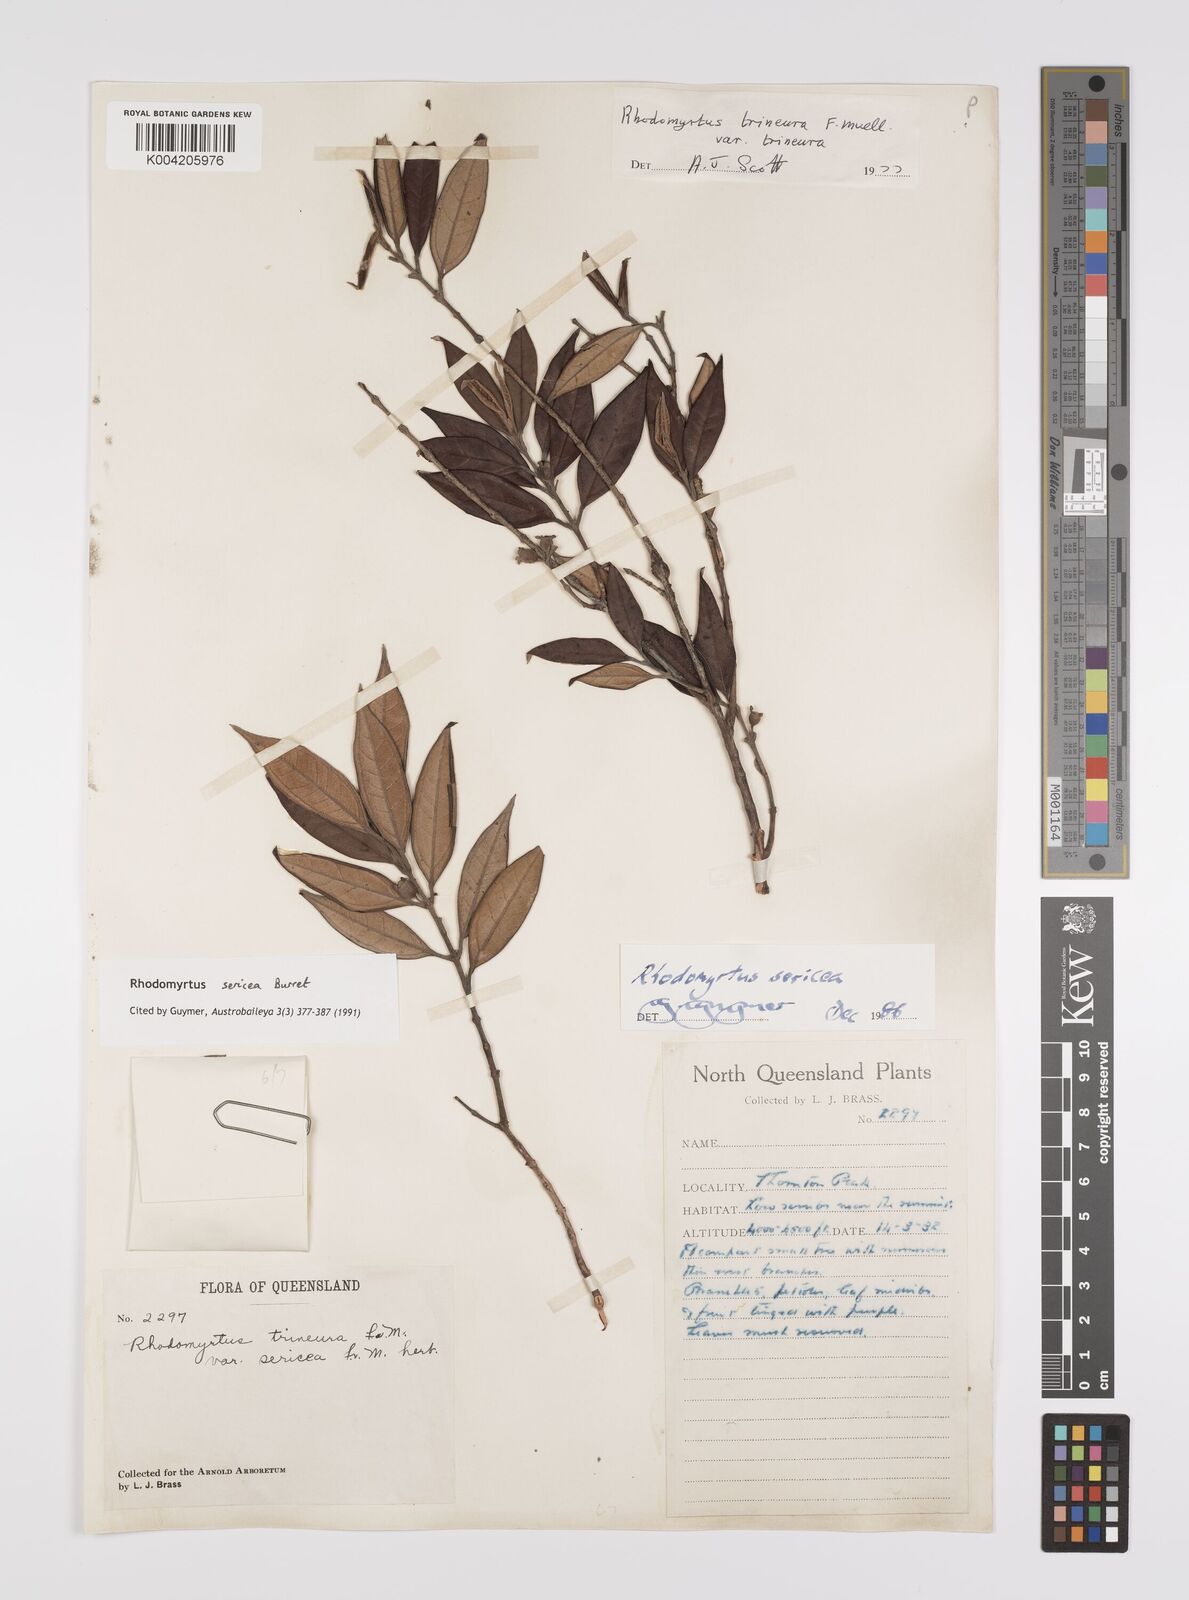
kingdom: Plantae
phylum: Tracheophyta
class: Magnoliopsida
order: Myrtales
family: Myrtaceae
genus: Rhodomyrtus
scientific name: Rhodomyrtus sericea
